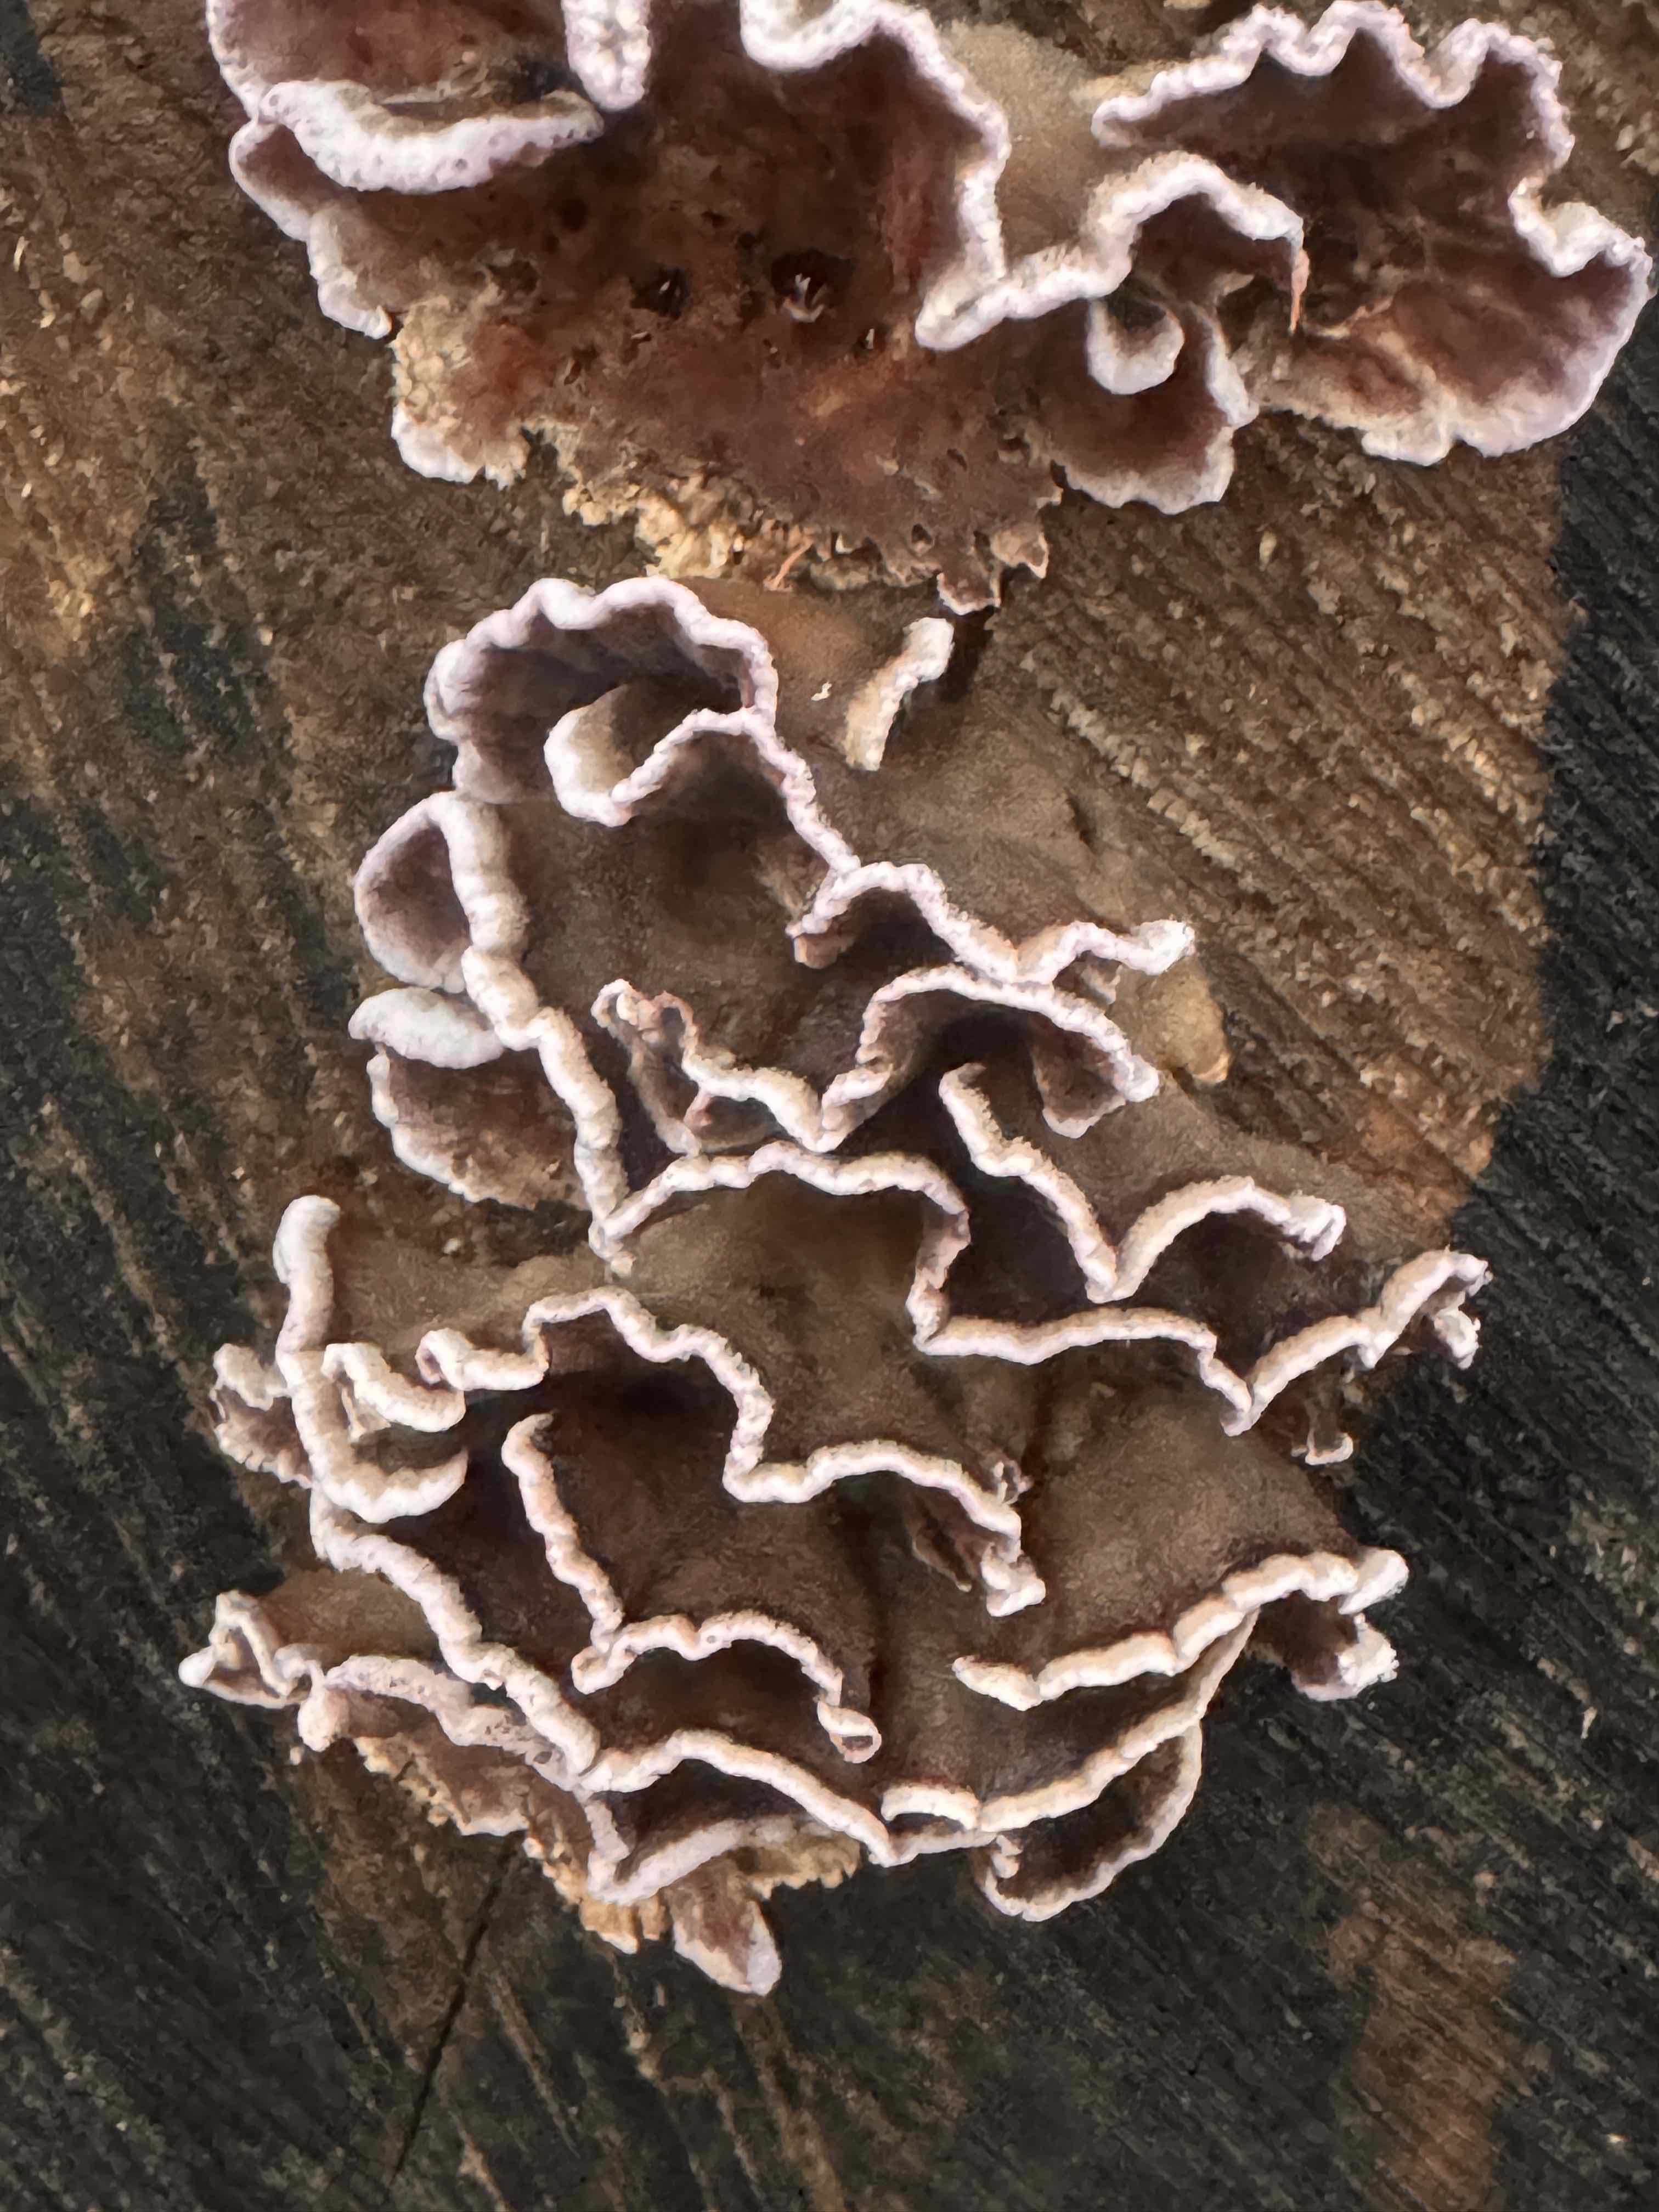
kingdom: Fungi
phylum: Basidiomycota
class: Agaricomycetes
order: Agaricales
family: Cyphellaceae
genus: Chondrostereum
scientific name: Chondrostereum purpureum
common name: purpurlædersvamp
